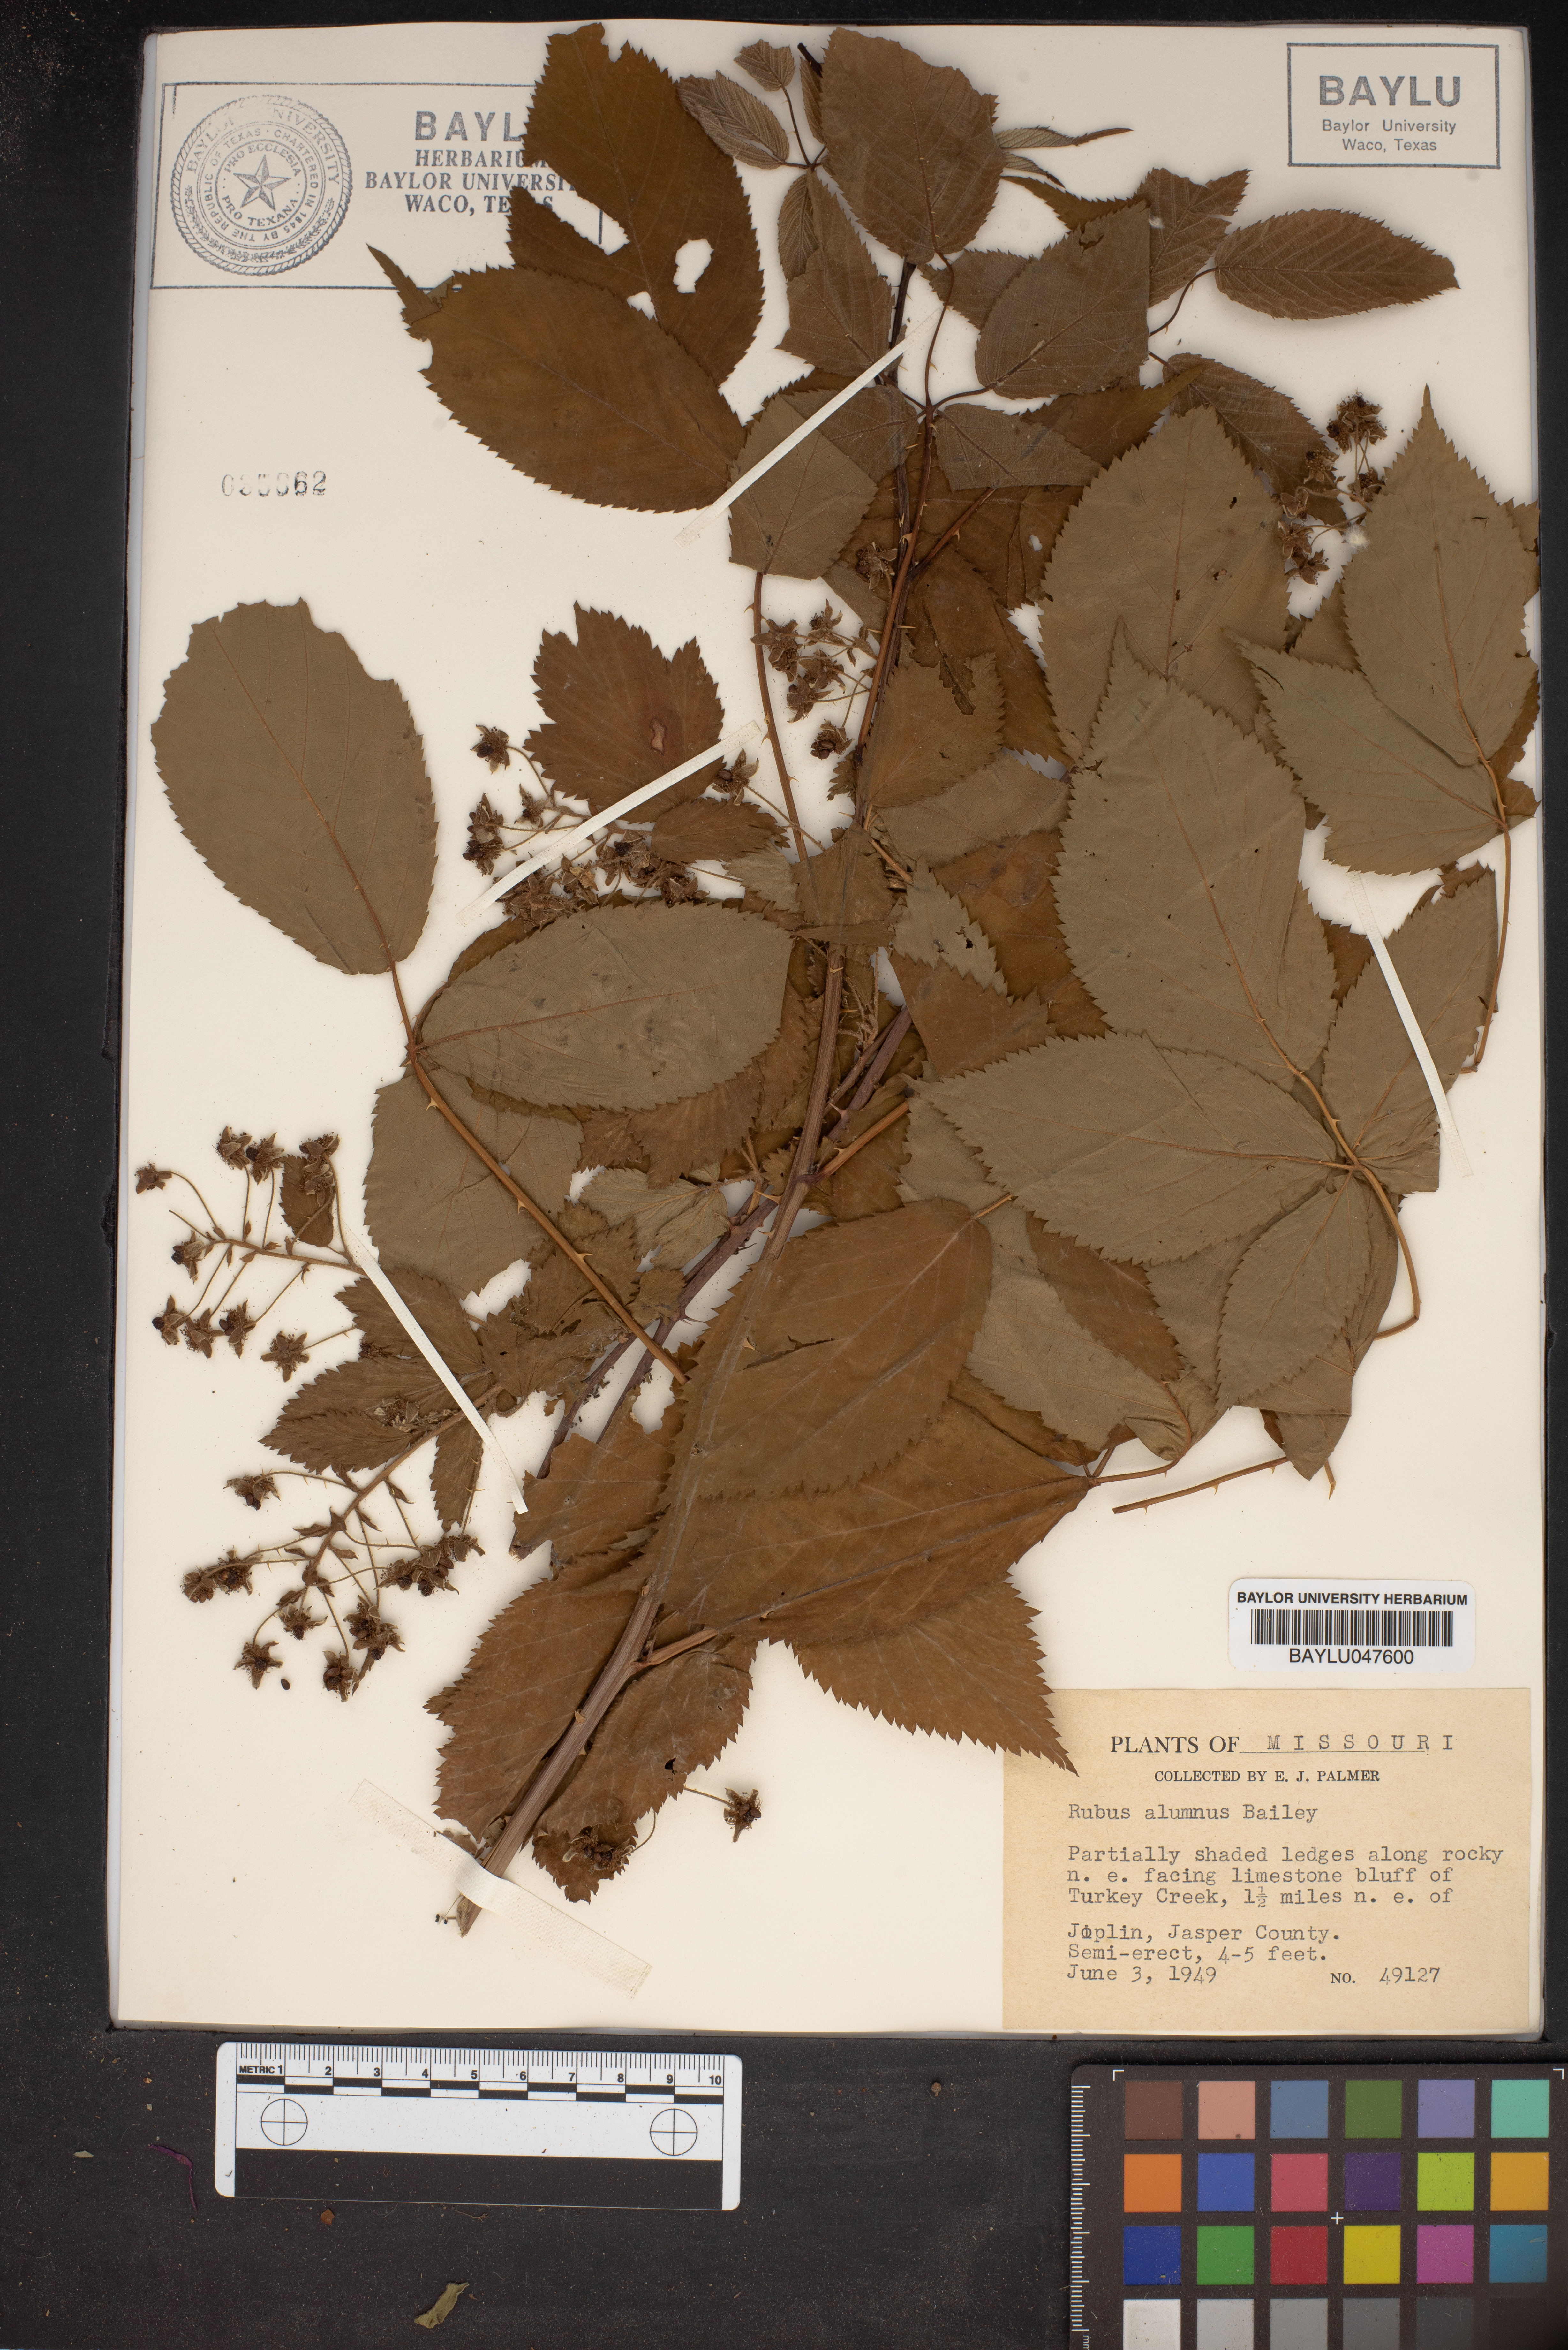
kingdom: Plantae
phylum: Tracheophyta
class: Magnoliopsida
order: Rosales
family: Rosaceae
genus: Rubus
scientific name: Rubus alumnus
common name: Kittatinny blackberry
